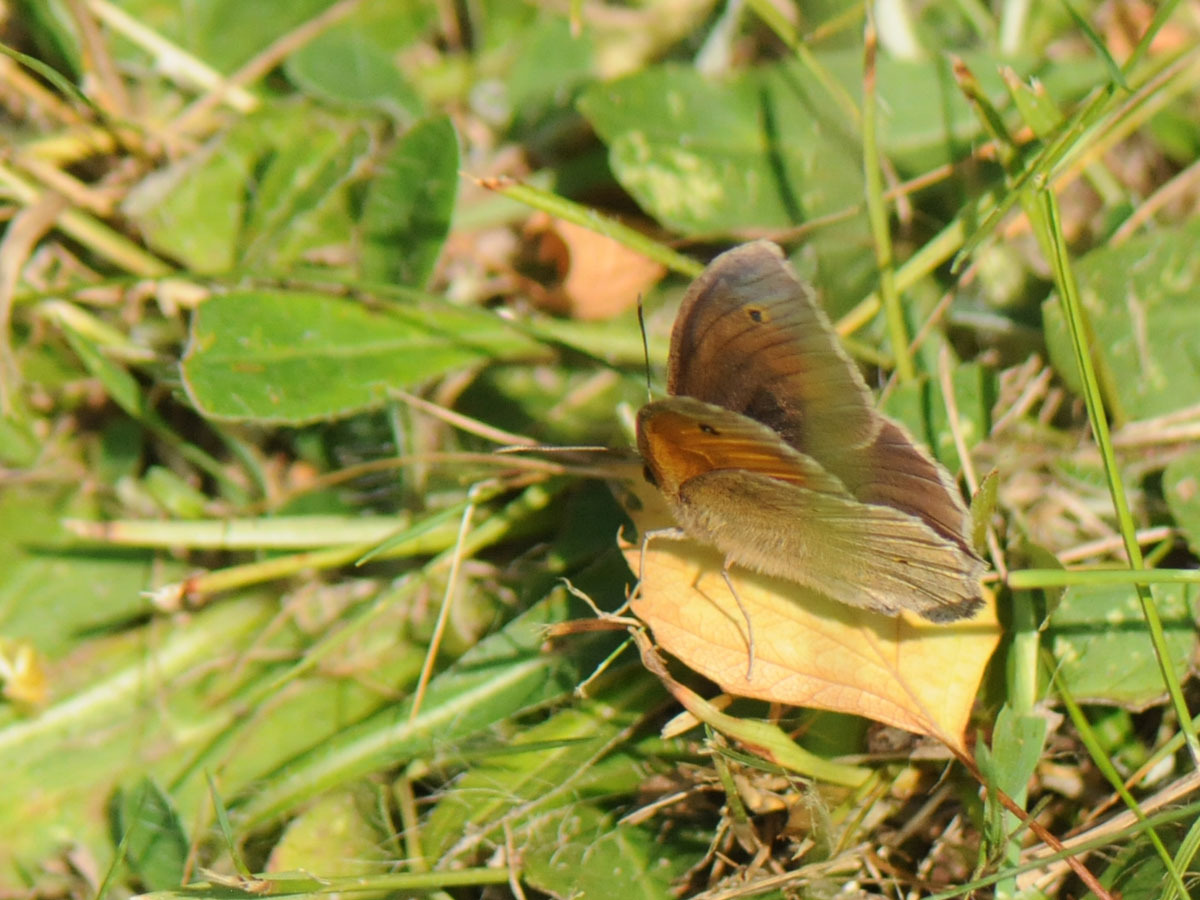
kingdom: Animalia
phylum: Arthropoda
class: Insecta
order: Lepidoptera
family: Nymphalidae
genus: Maniola
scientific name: Maniola jurtina
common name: Græsrandøje
